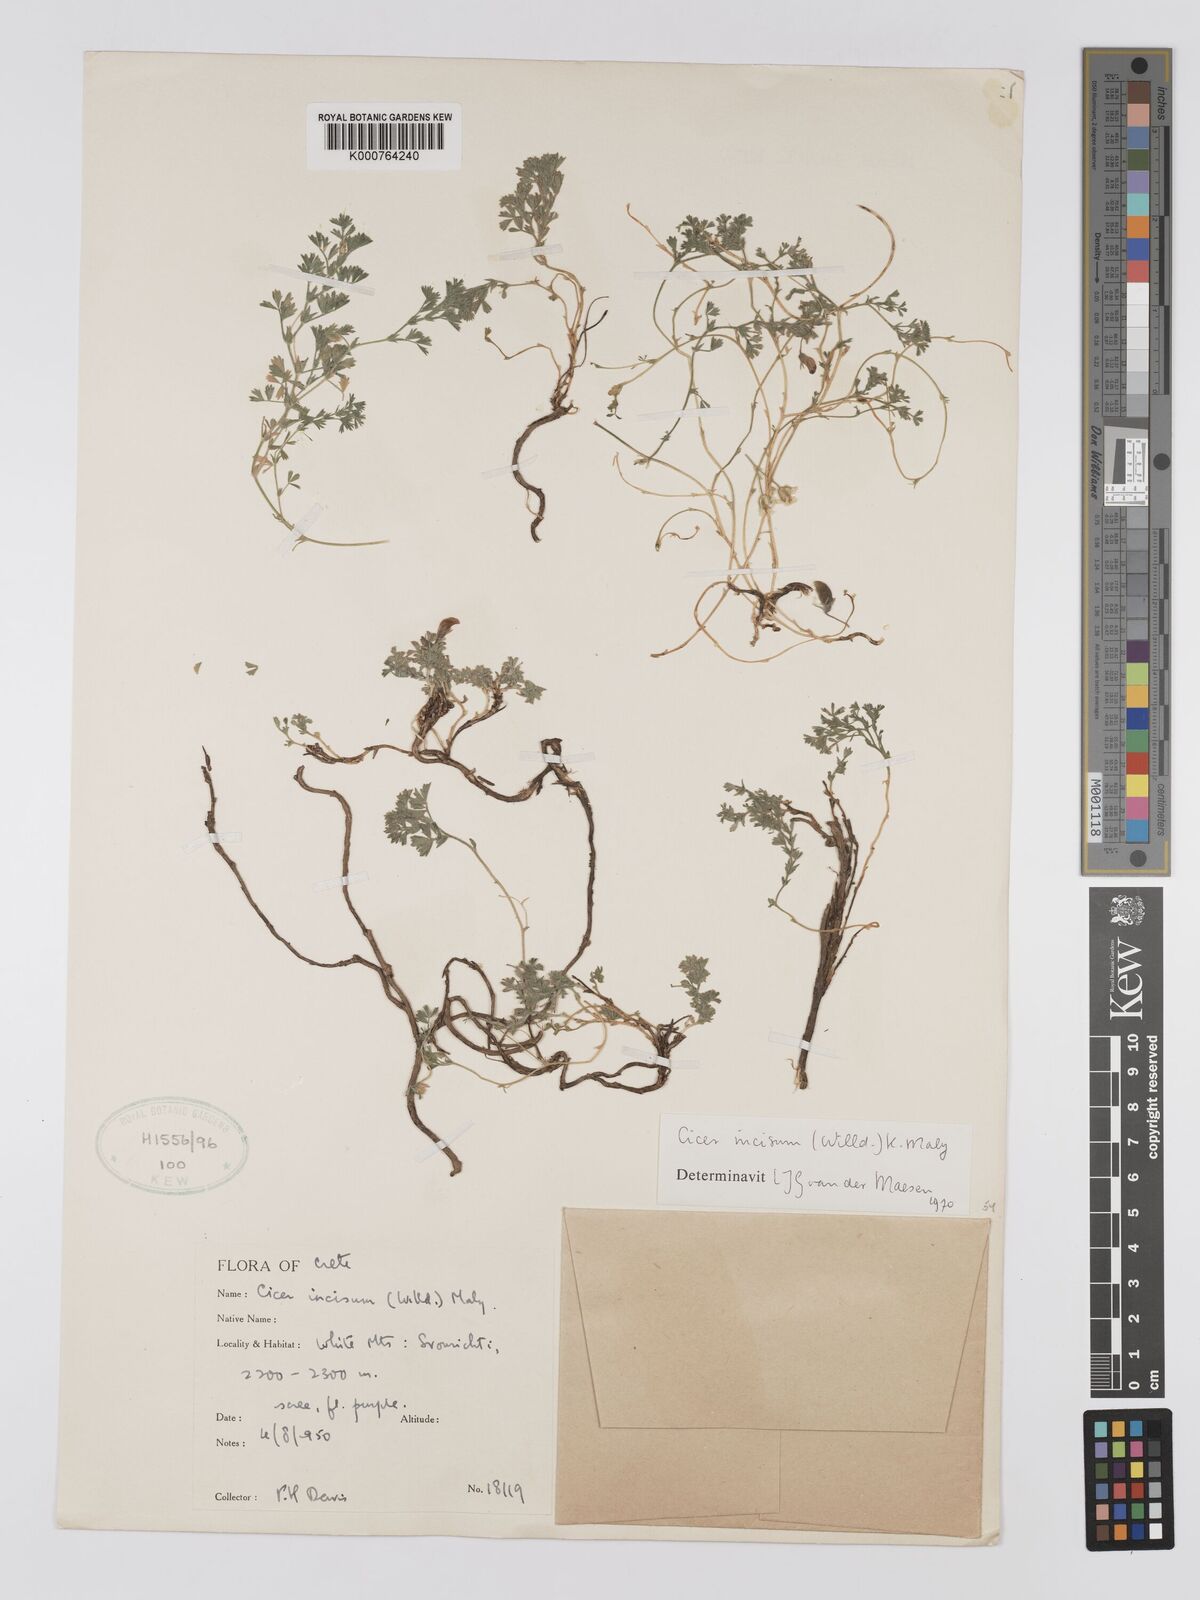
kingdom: Plantae
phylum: Tracheophyta
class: Magnoliopsida
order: Fabales
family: Fabaceae
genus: Cicer
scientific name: Cicer incisum
